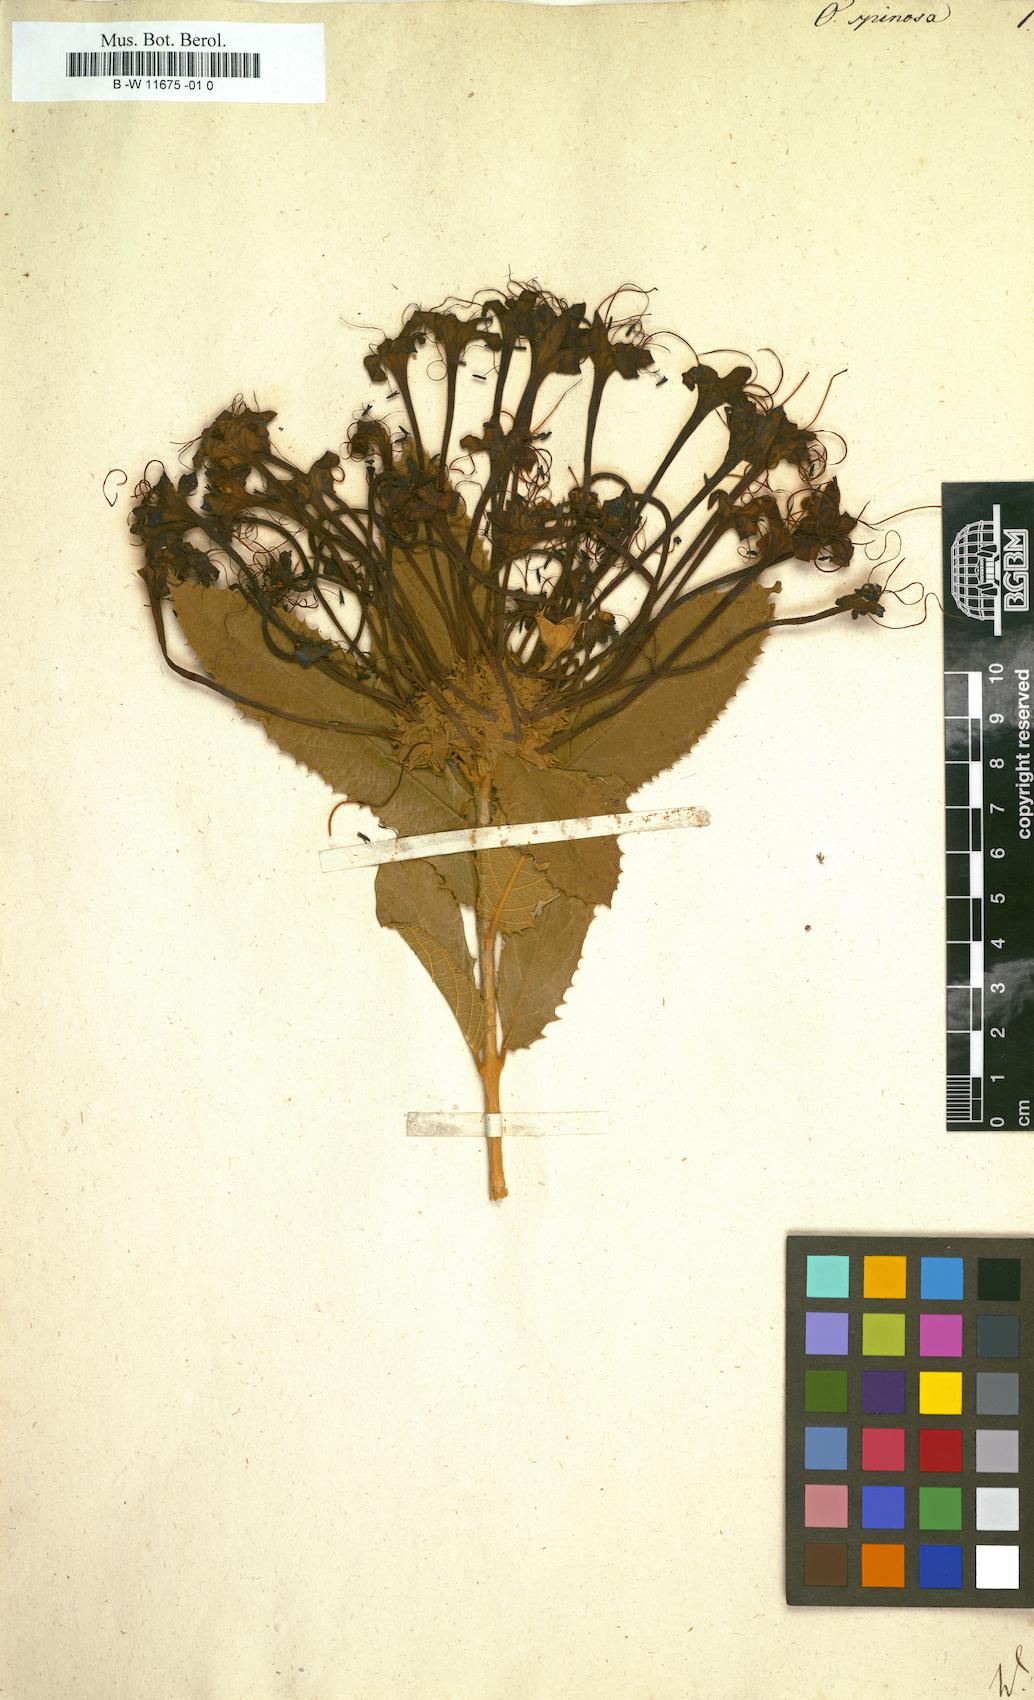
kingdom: Plantae
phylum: Tracheophyta
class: Magnoliopsida
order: Lamiales
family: Lamiaceae
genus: Ovieda
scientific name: Ovieda spinosa
